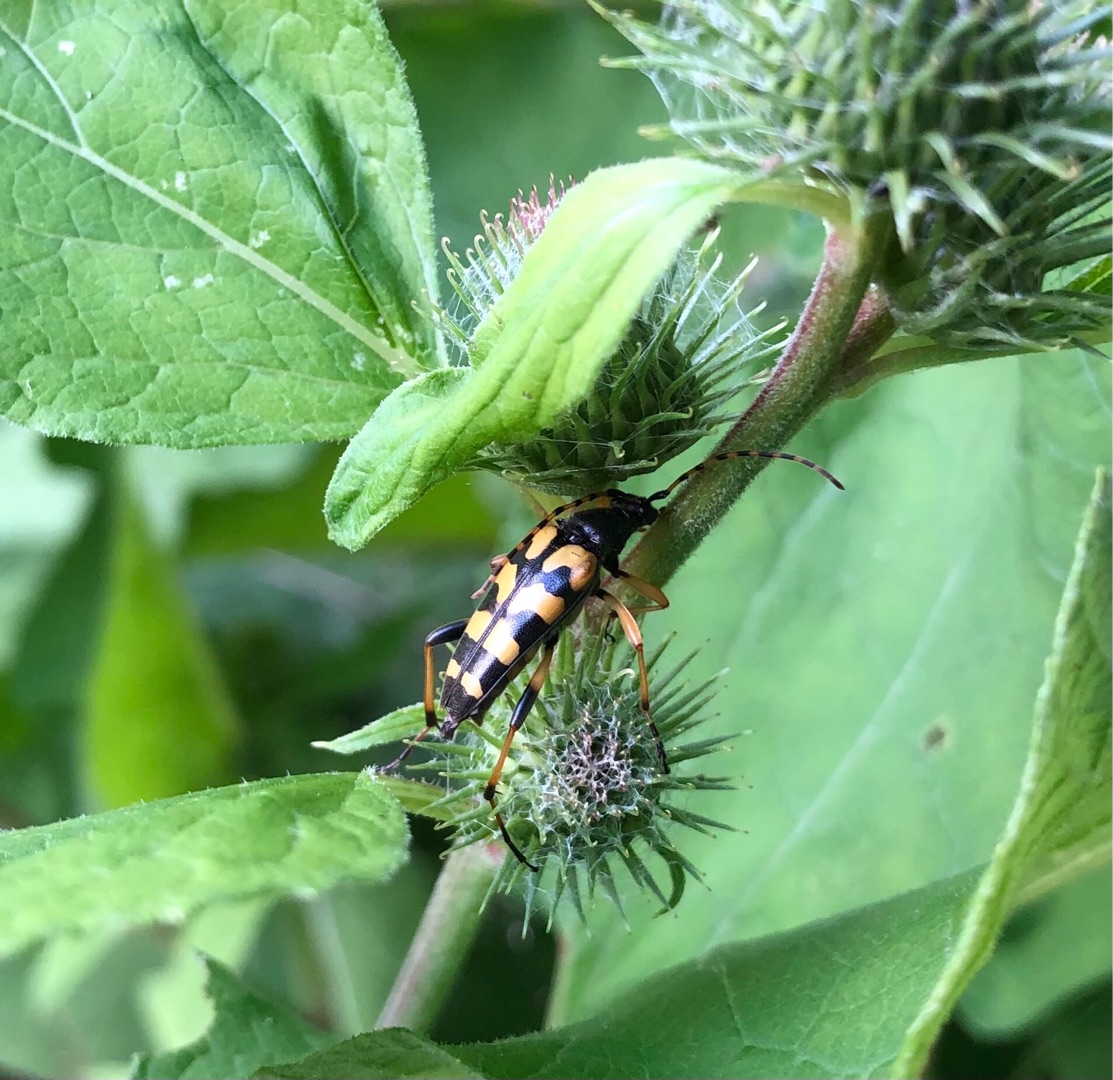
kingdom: Animalia
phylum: Arthropoda
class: Insecta
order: Coleoptera
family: Cerambycidae
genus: Rutpela
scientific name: Rutpela maculata
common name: Sydlig blomsterbuk
